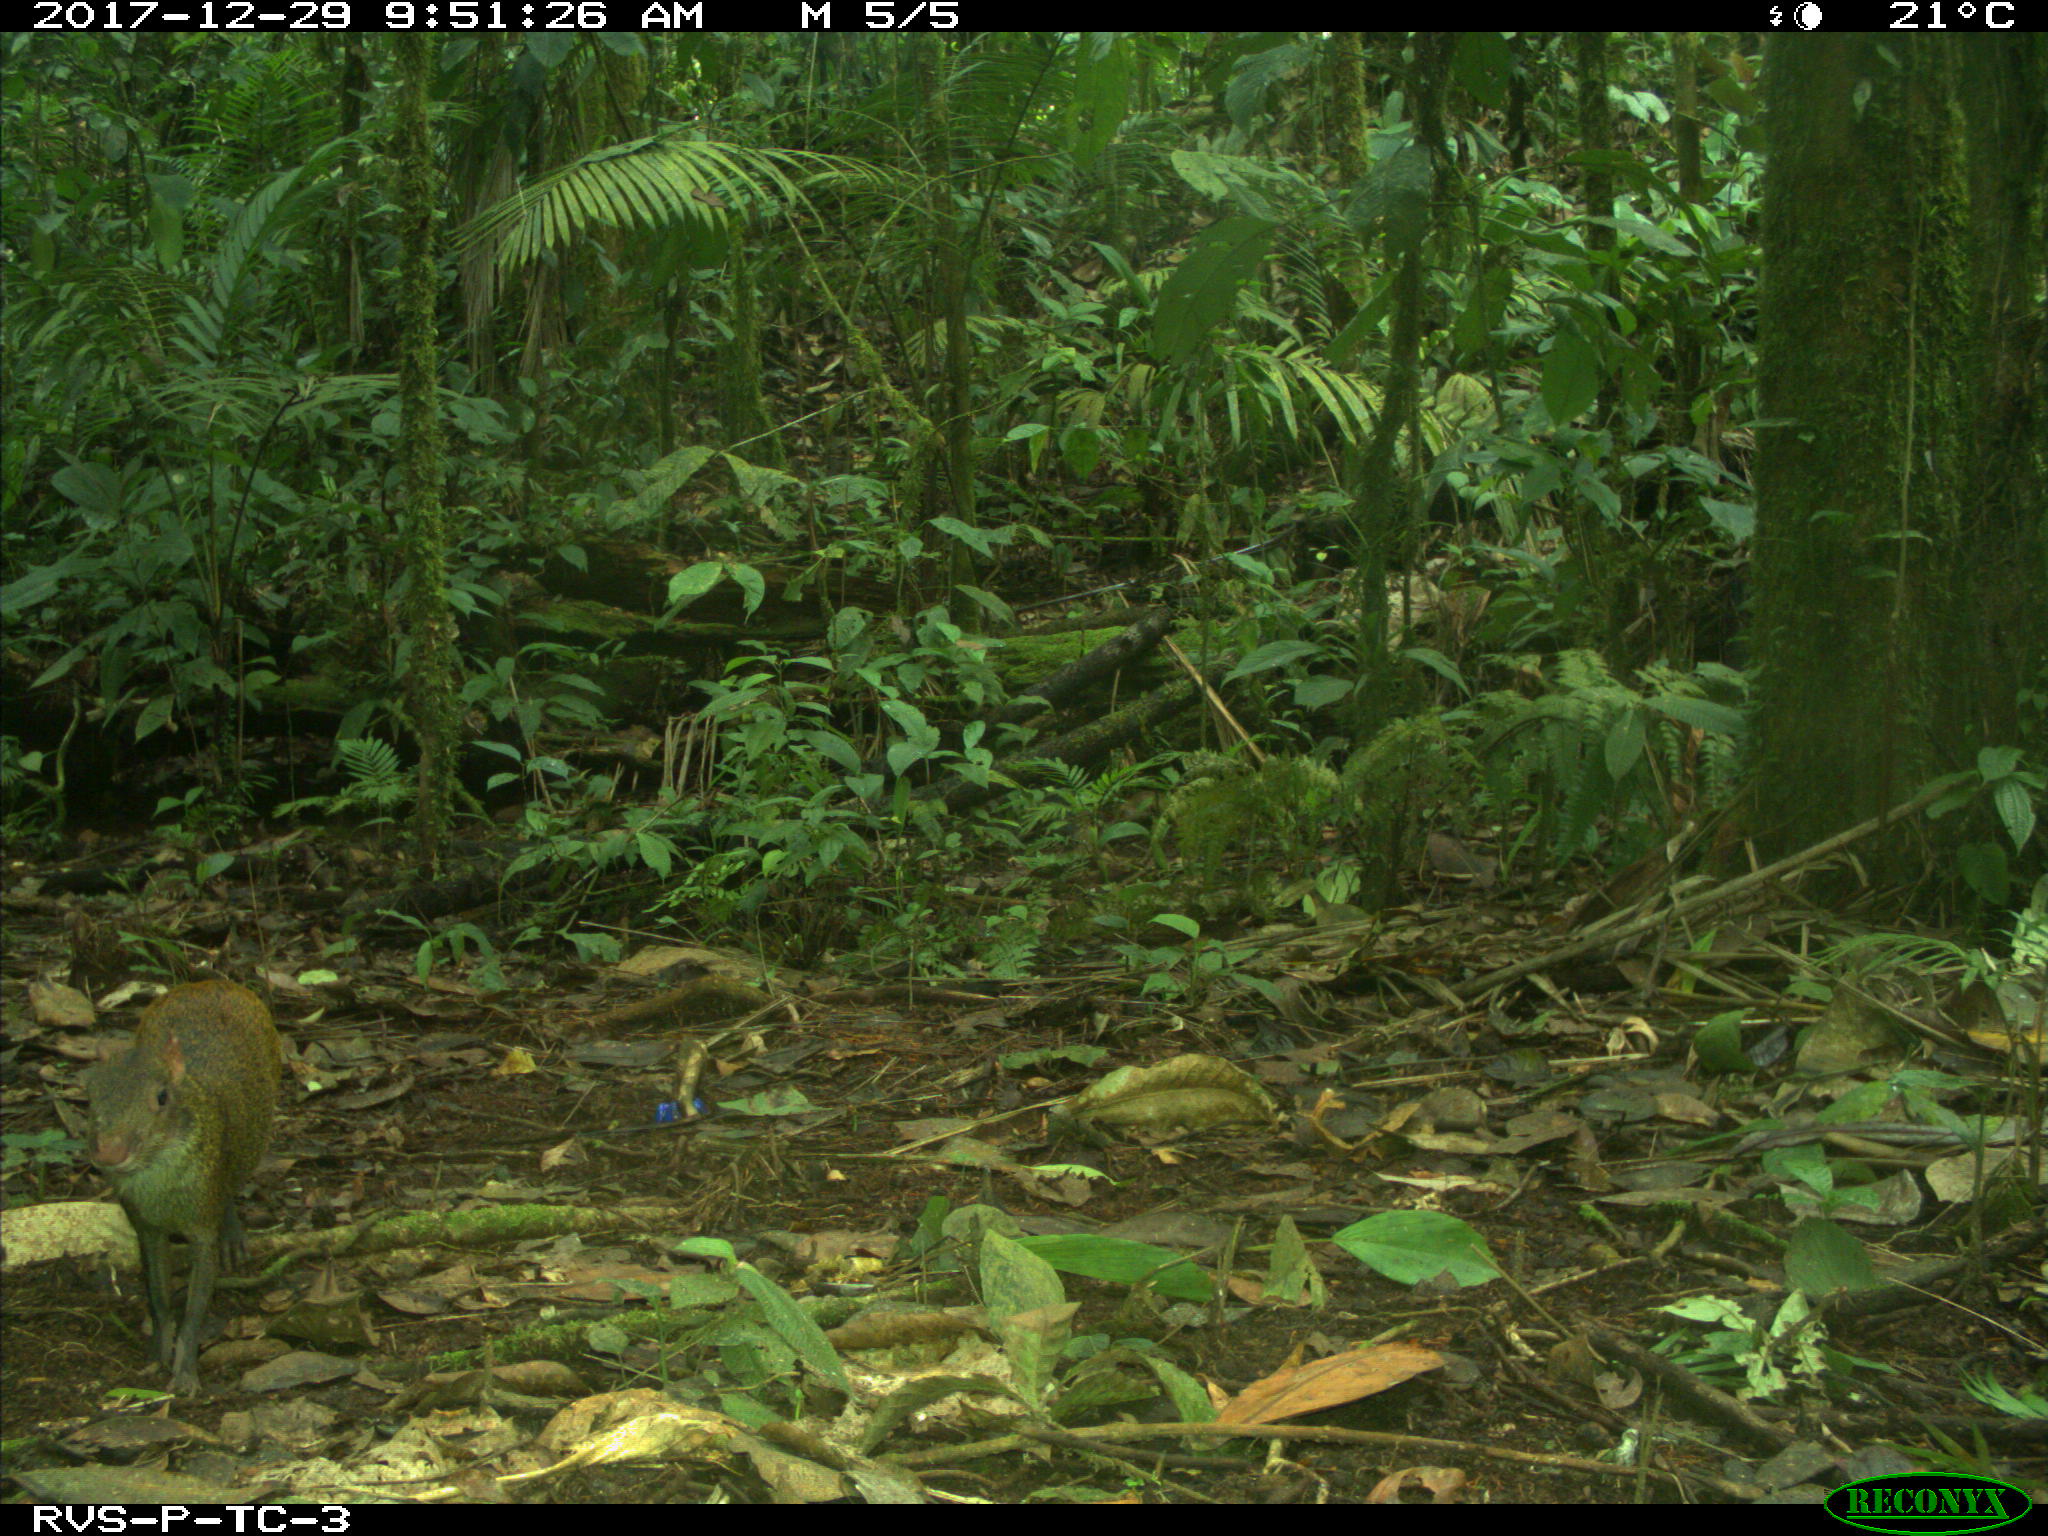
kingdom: Animalia
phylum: Chordata
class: Mammalia
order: Rodentia
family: Dasyproctidae
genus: Dasyprocta
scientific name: Dasyprocta punctata
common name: Central american agouti
